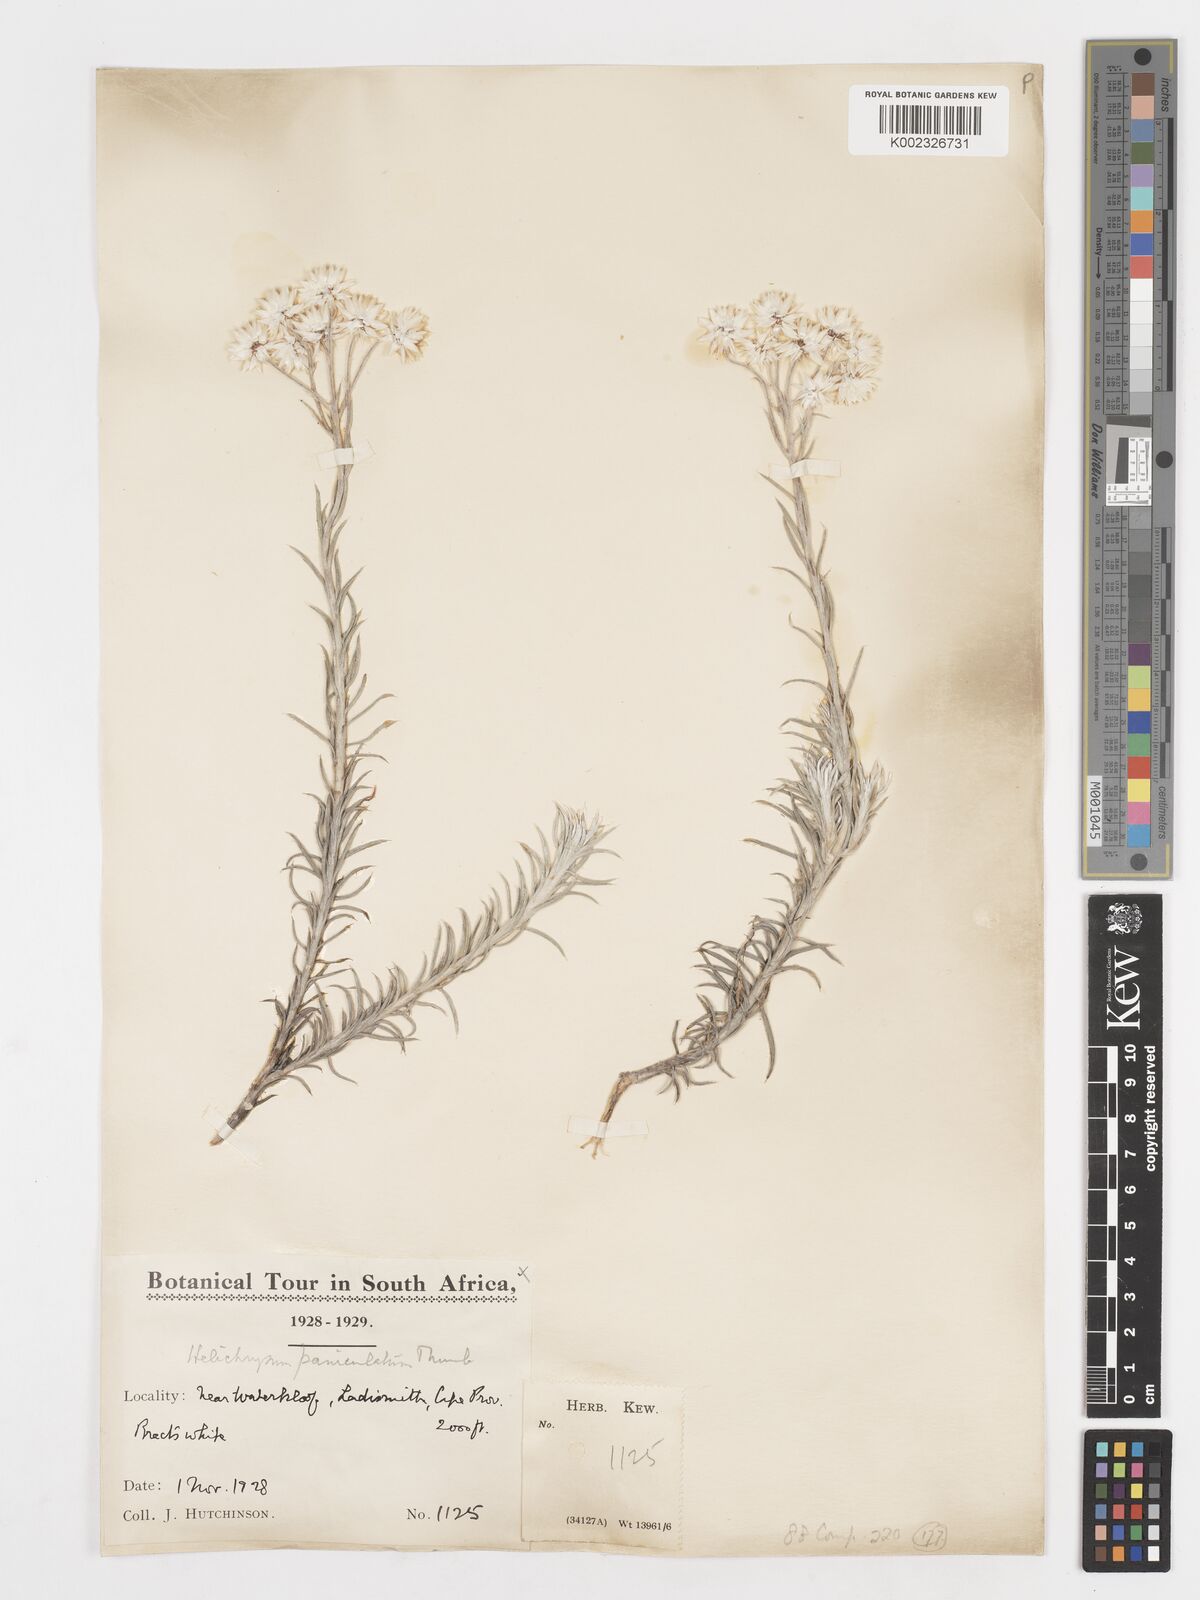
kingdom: Plantae
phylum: Tracheophyta
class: Magnoliopsida
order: Asterales
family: Asteraceae
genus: Achyranthemum
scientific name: Achyranthemum paniculatum
